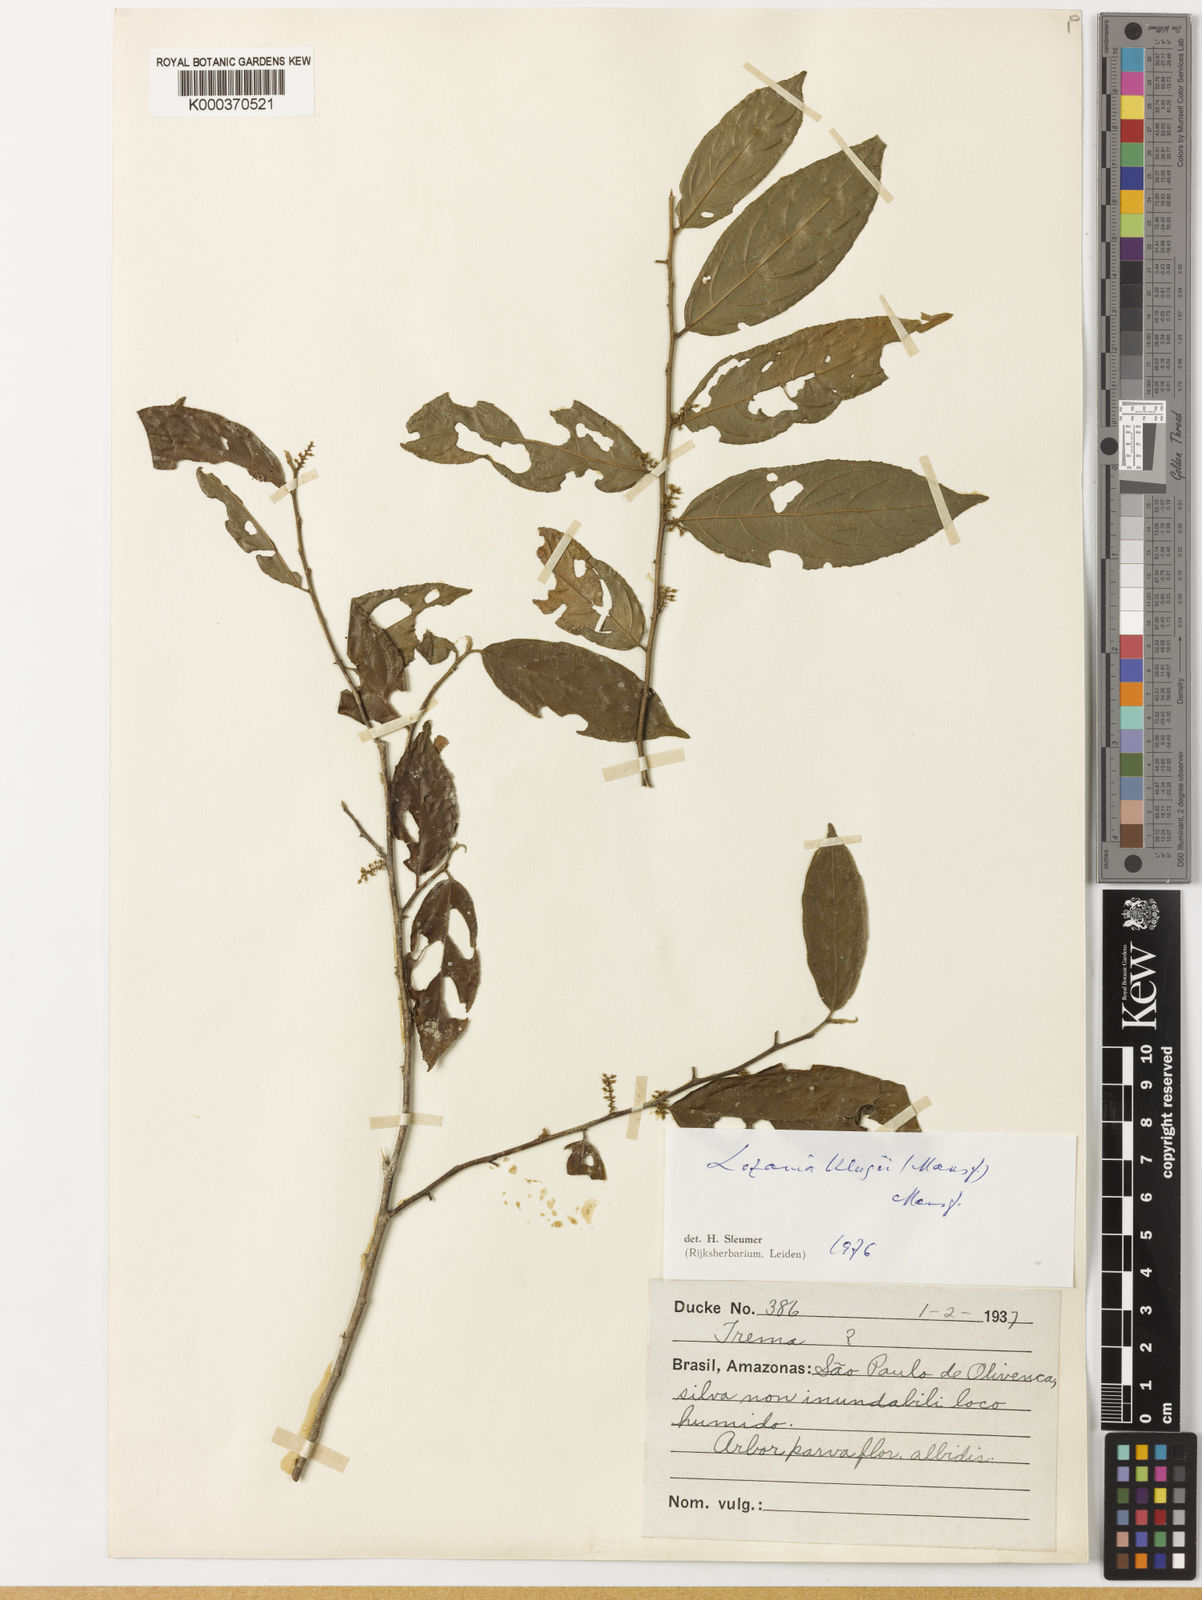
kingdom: Plantae
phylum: Tracheophyta
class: Magnoliopsida
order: Malpighiales
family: Lacistemataceae
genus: Lozania
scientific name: Lozania klugii
